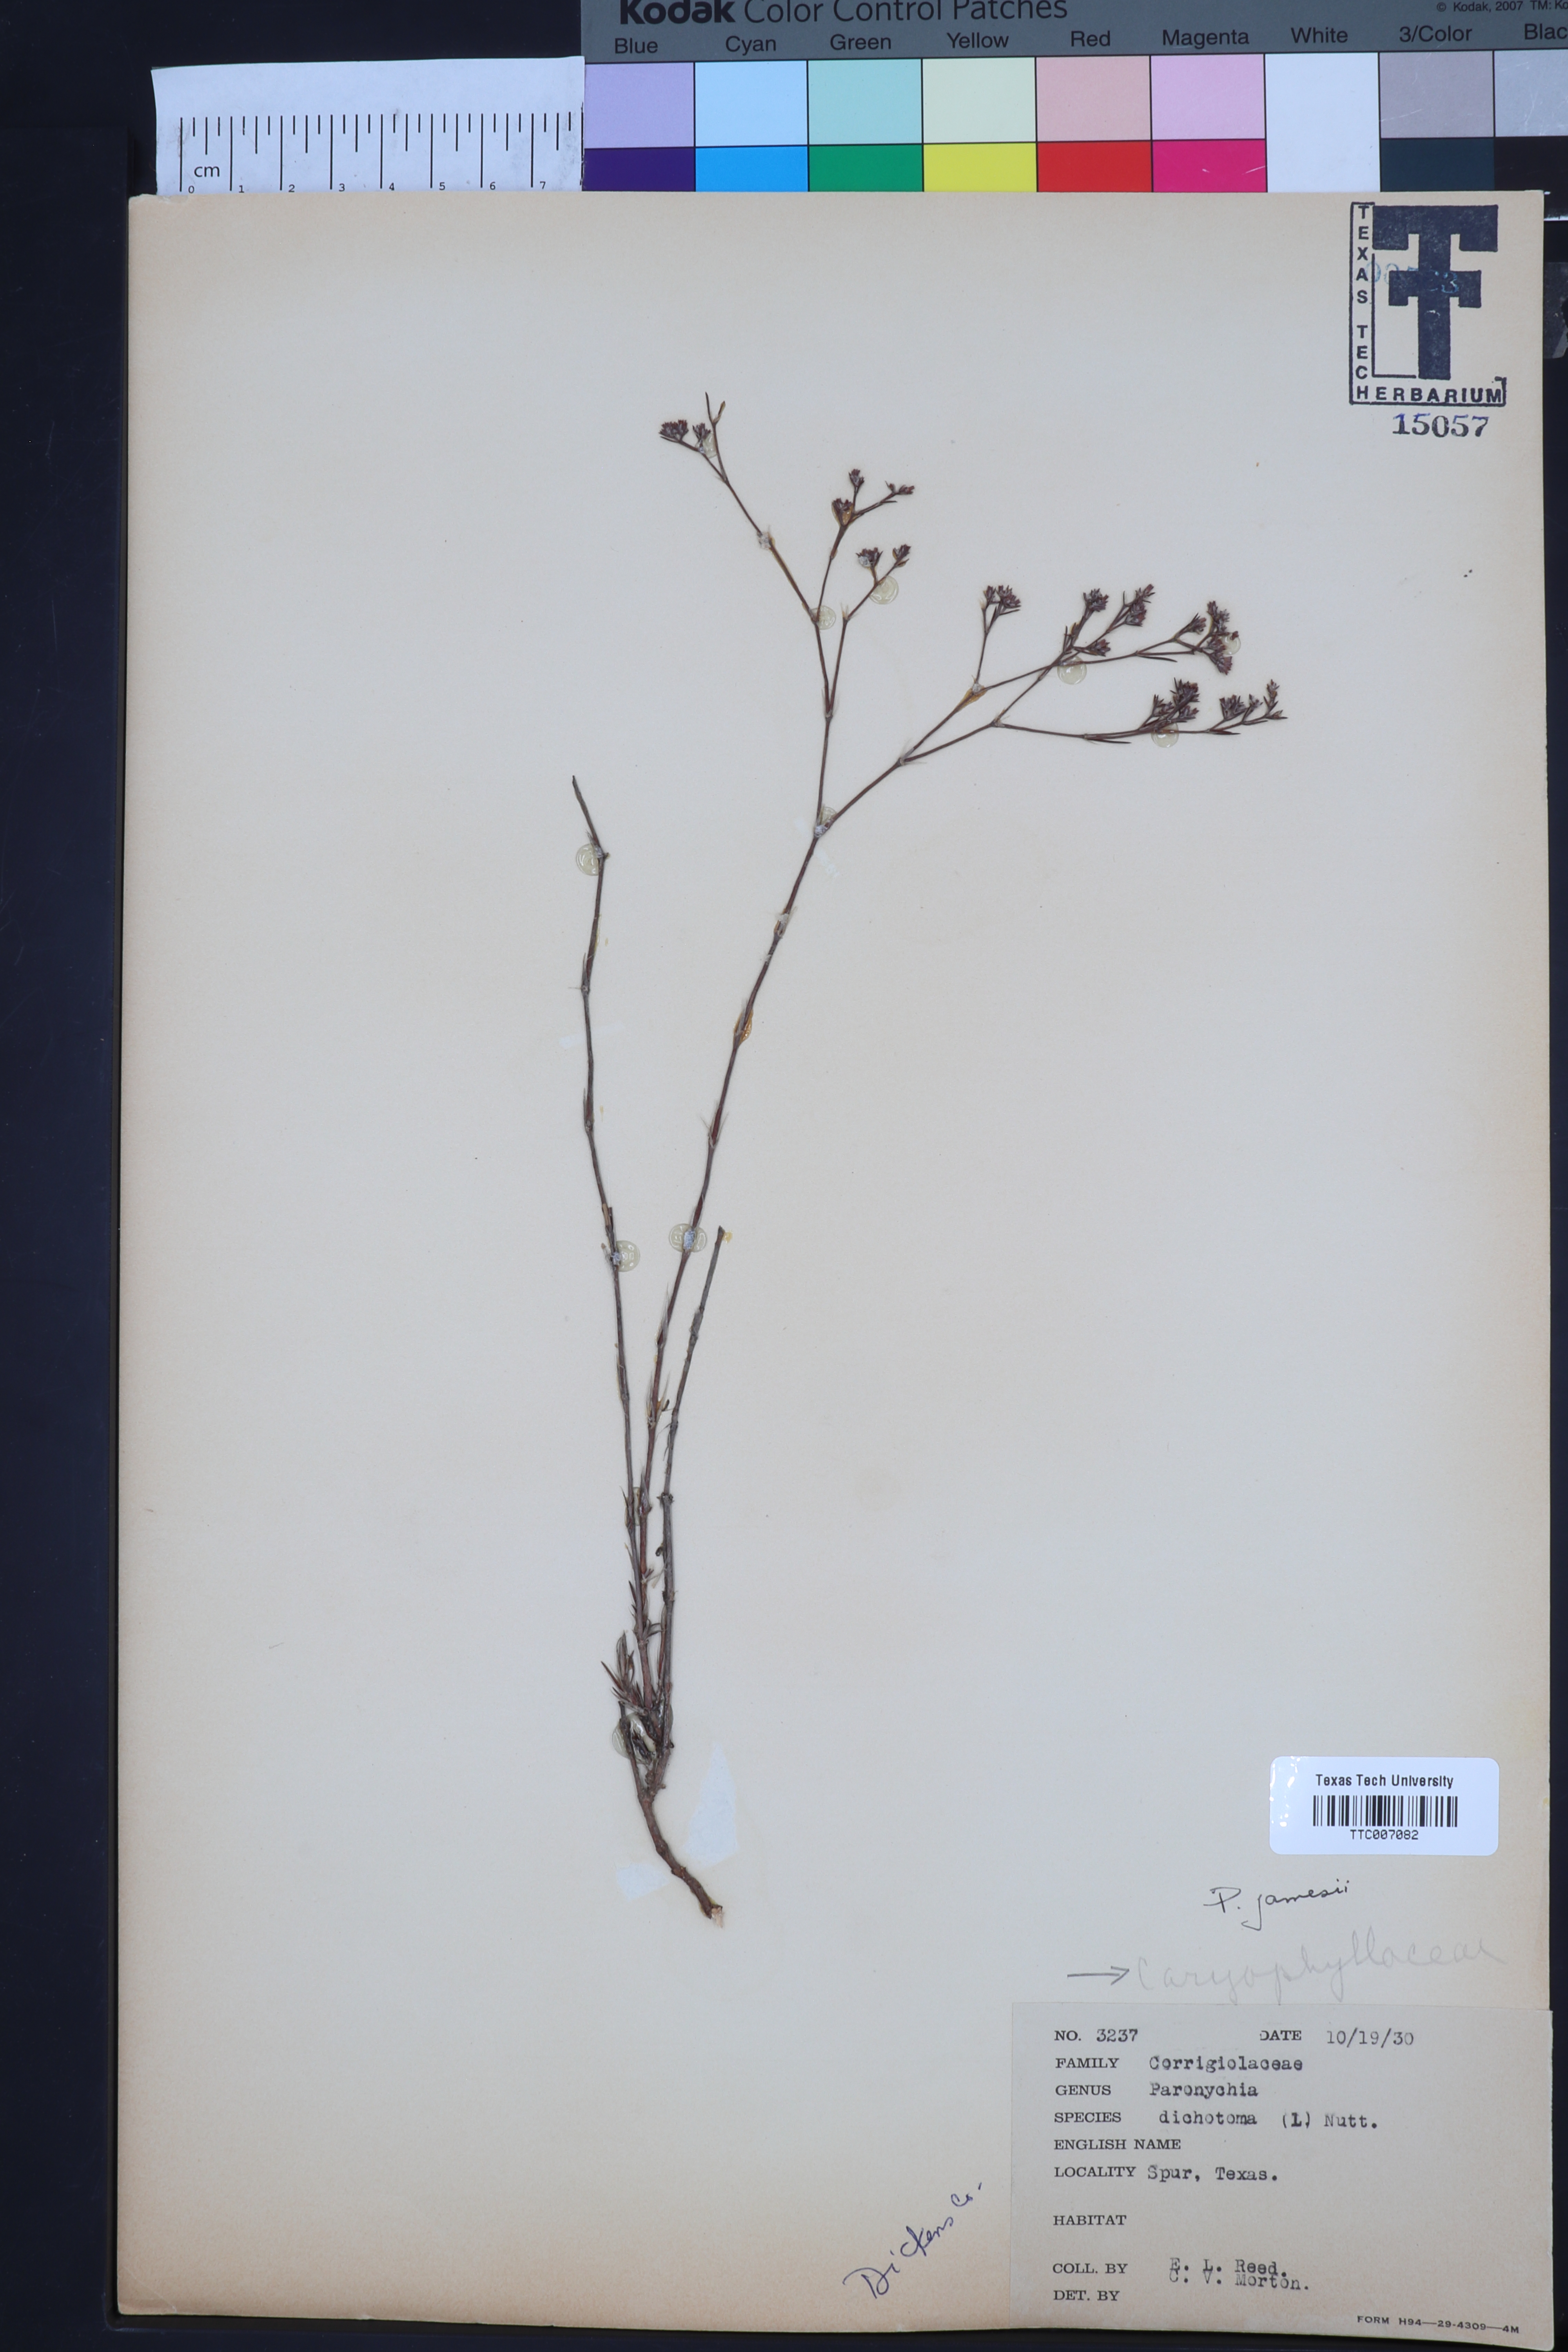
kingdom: Plantae
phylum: Tracheophyta
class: Magnoliopsida
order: Caryophyllales
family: Caryophyllaceae
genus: Paronychia
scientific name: Paronychia jamesii
